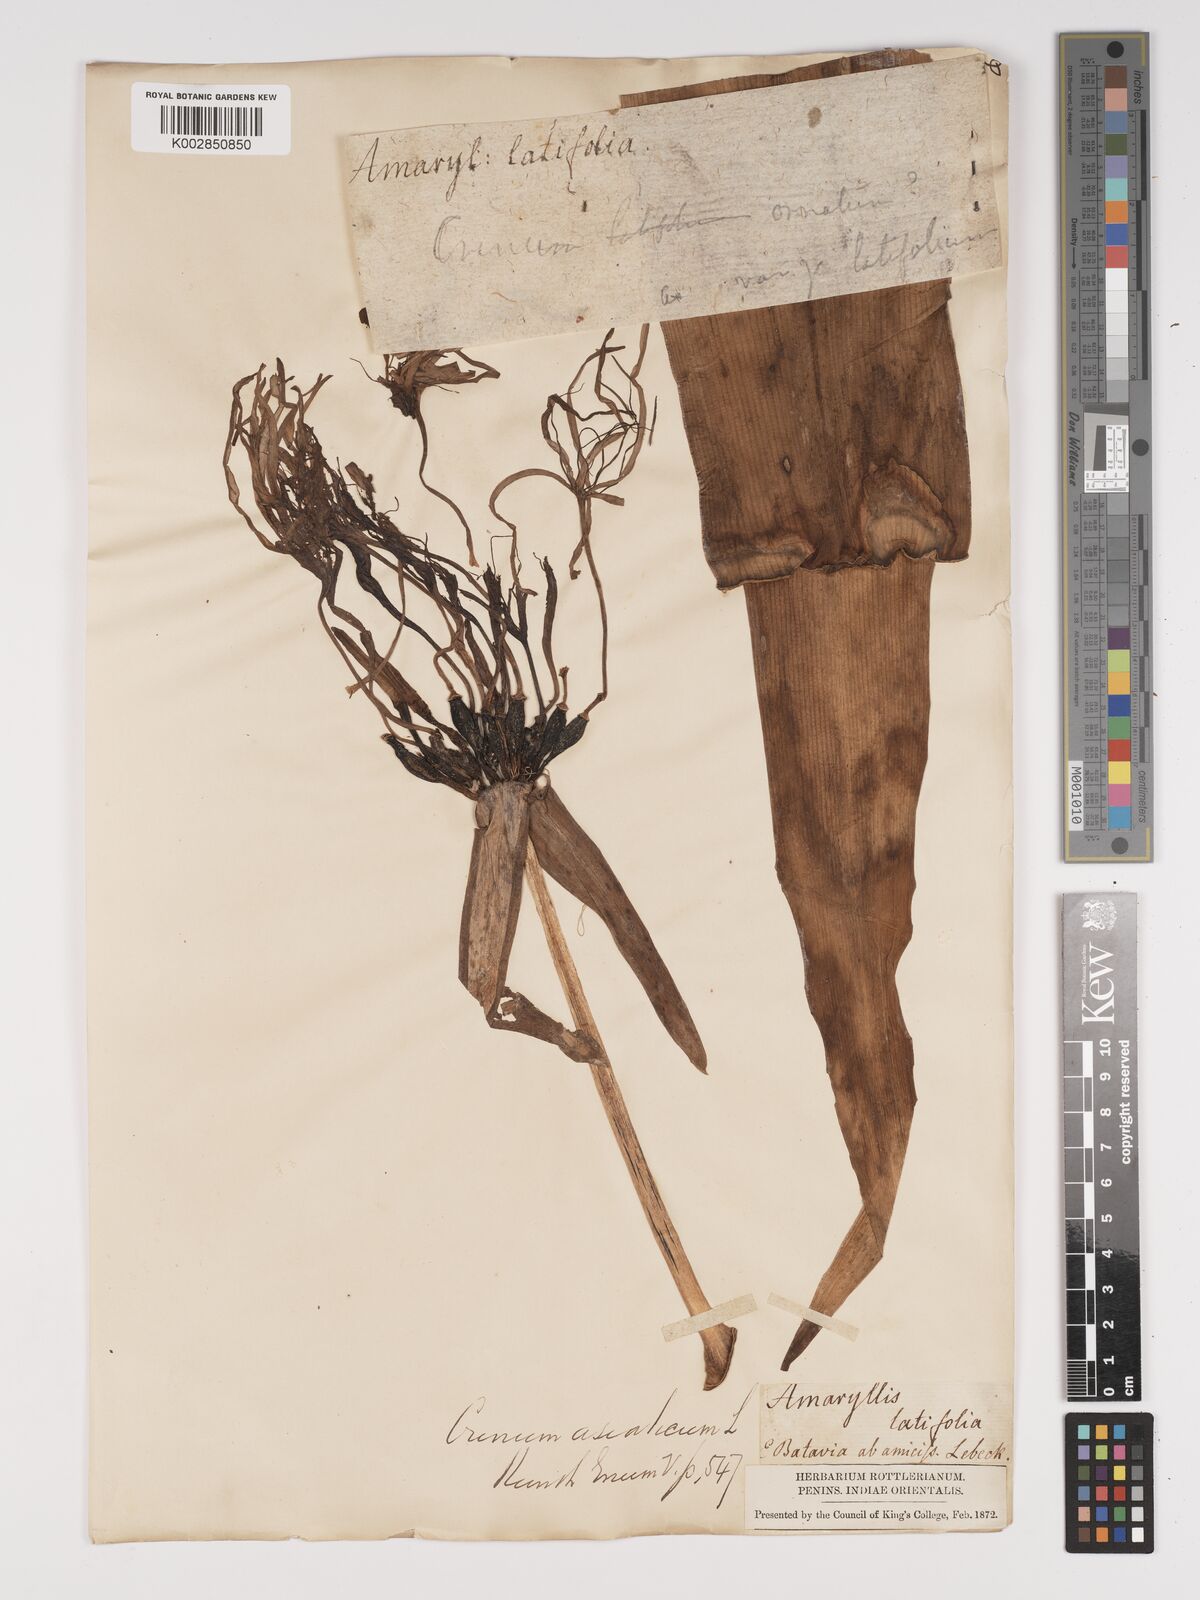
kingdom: Plantae
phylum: Tracheophyta
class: Liliopsida
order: Asparagales
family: Amaryllidaceae
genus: Crinum
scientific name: Crinum asiaticum
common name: Poisonbulb
